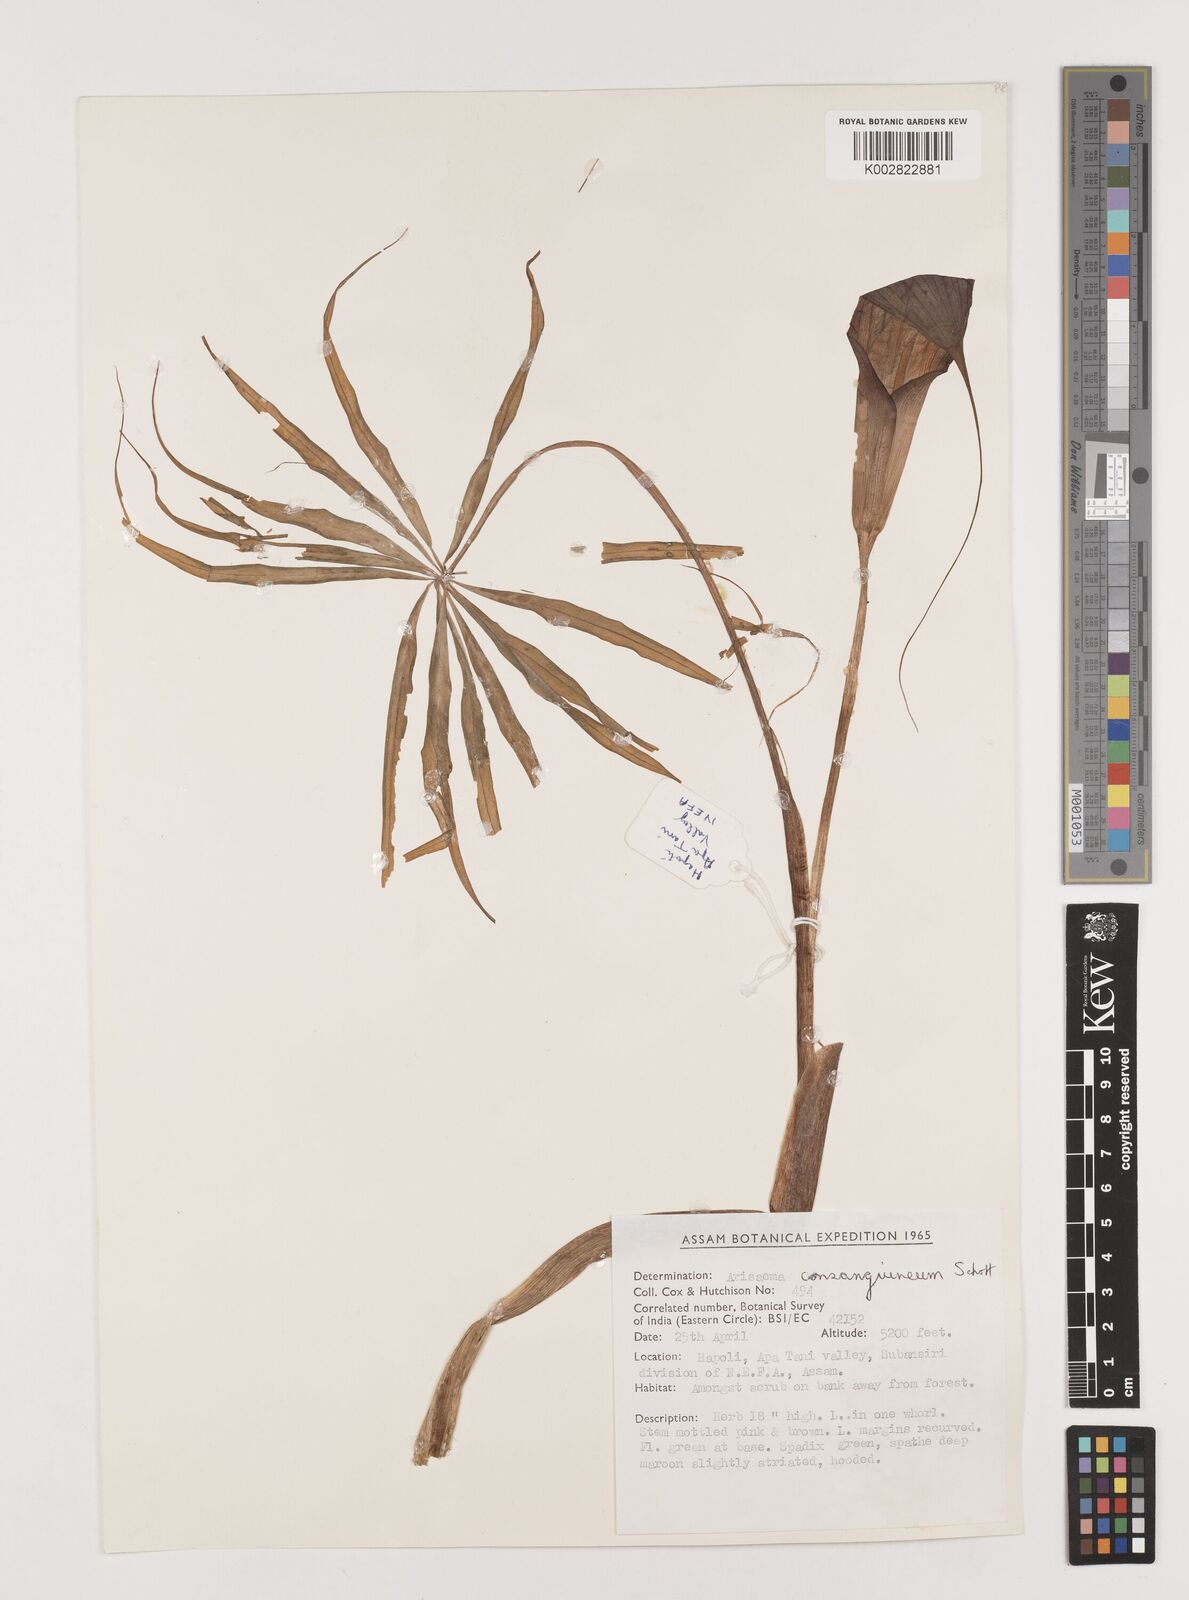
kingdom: Plantae
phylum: Tracheophyta
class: Liliopsida
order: Alismatales
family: Araceae
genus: Arisaema
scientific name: Arisaema erubescens
